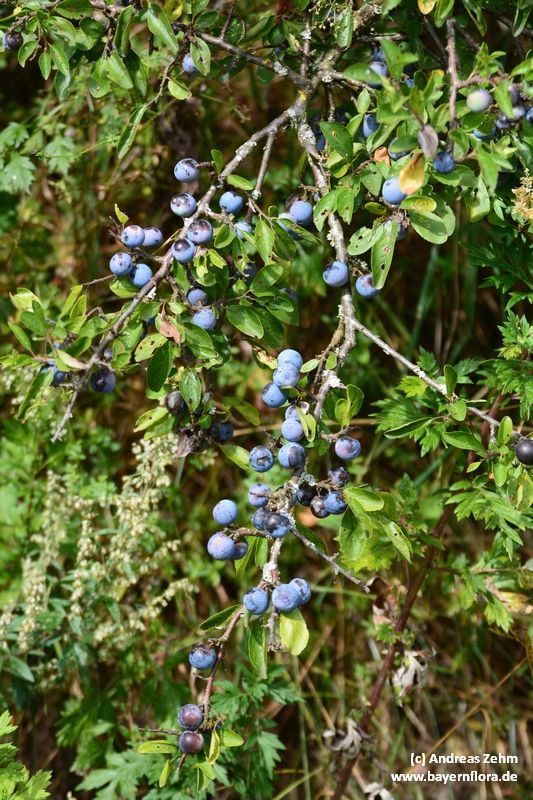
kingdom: Plantae
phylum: Tracheophyta
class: Magnoliopsida
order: Rosales
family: Rosaceae
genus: Prunus
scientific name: Prunus spinosa
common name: Blackthorn
